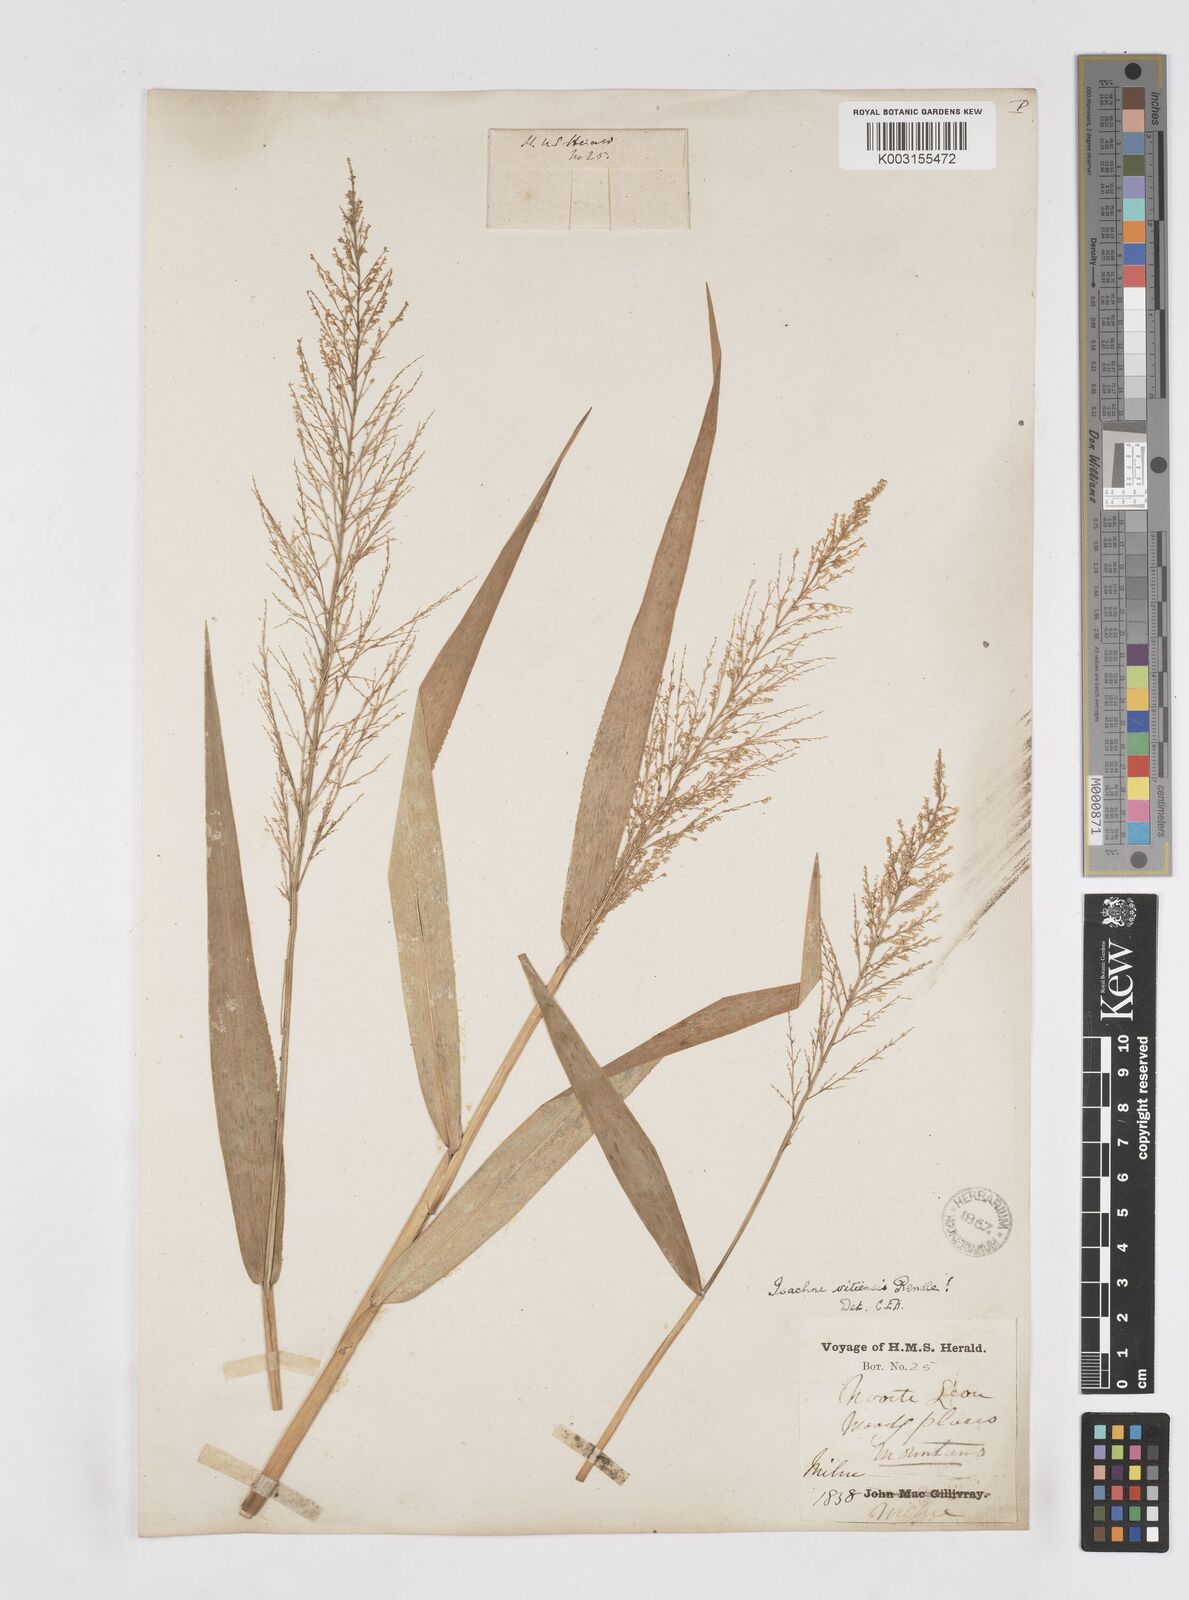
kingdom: Plantae
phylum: Tracheophyta
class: Liliopsida
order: Poales
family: Poaceae
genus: Isachne
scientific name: Isachne vitiensis
